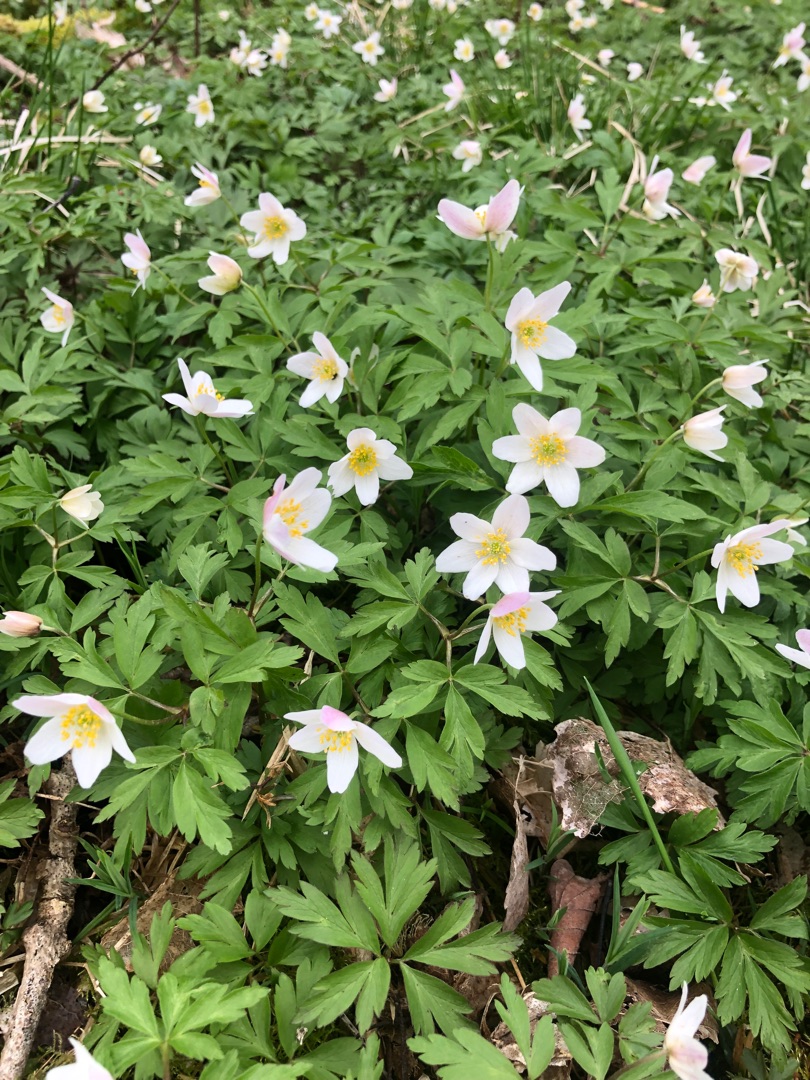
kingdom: Plantae
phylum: Tracheophyta
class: Magnoliopsida
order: Ranunculales
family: Ranunculaceae
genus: Anemone
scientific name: Anemone nemorosa
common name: Hvid anemone
